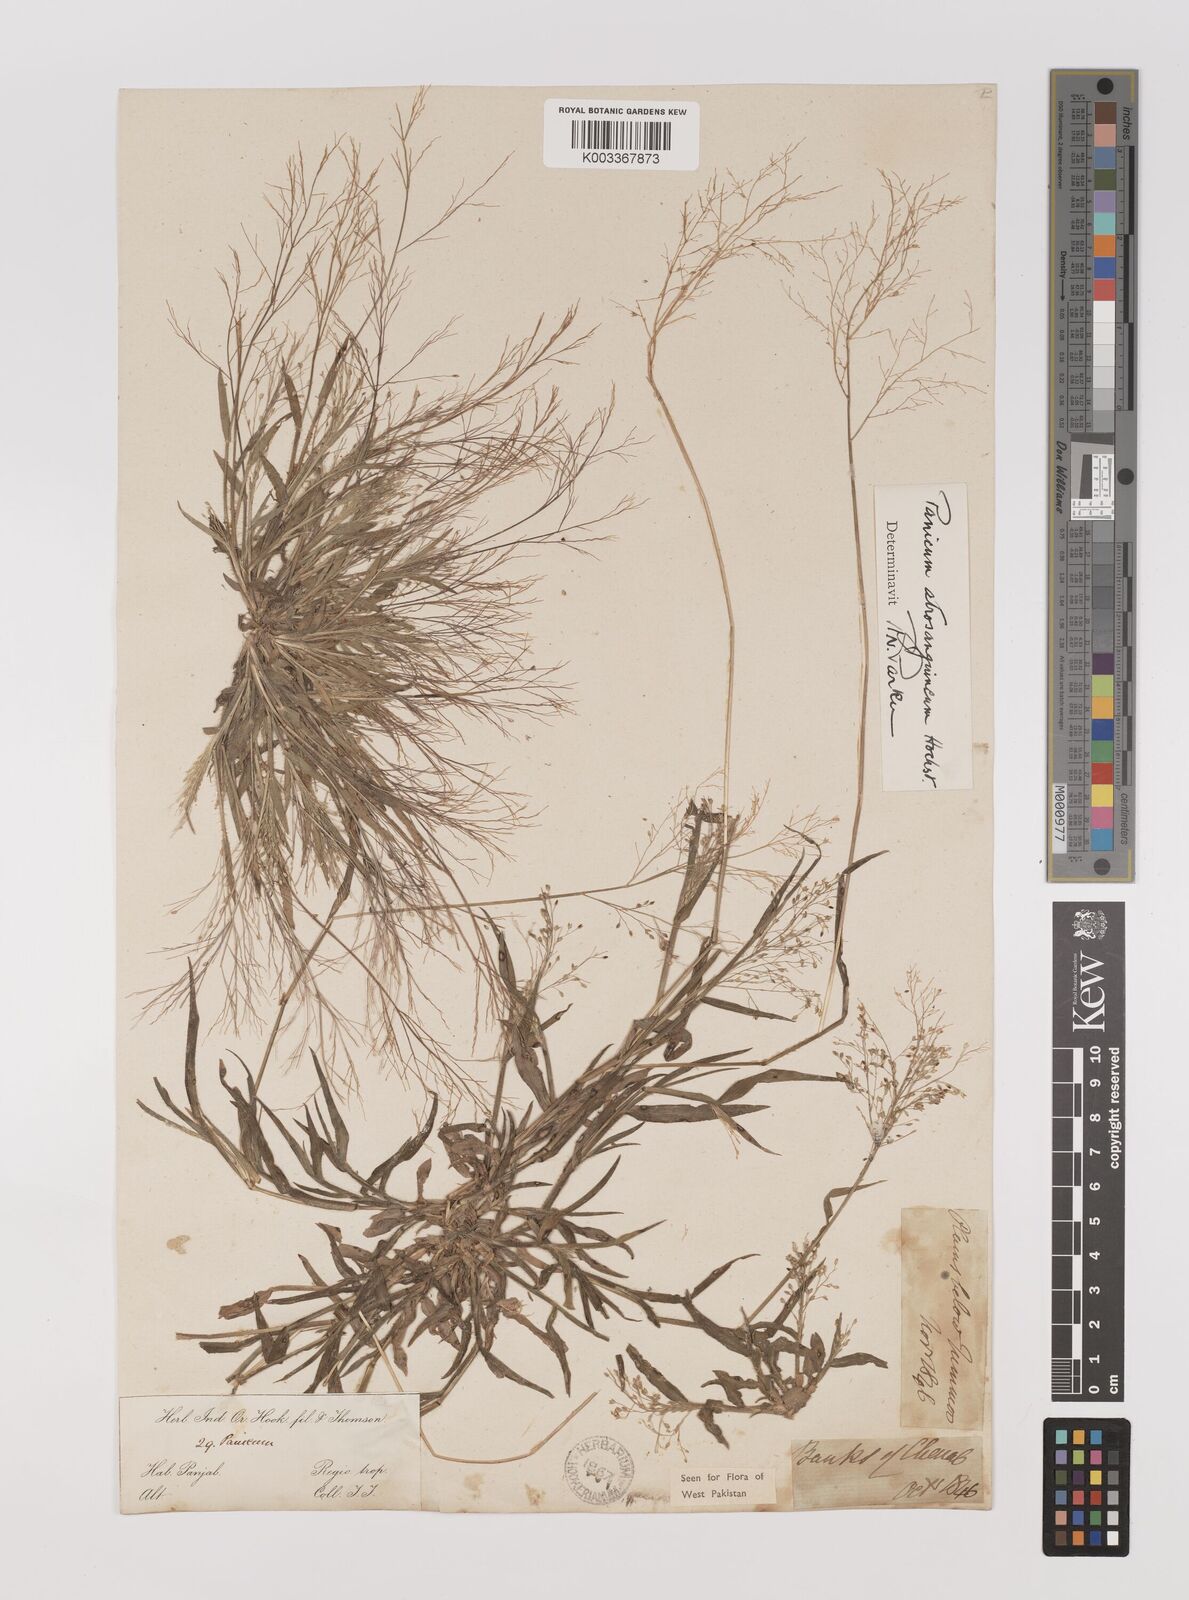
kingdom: Plantae
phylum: Tracheophyta
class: Liliopsida
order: Poales
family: Poaceae
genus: Panicum
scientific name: Panicum atrosanguineum
